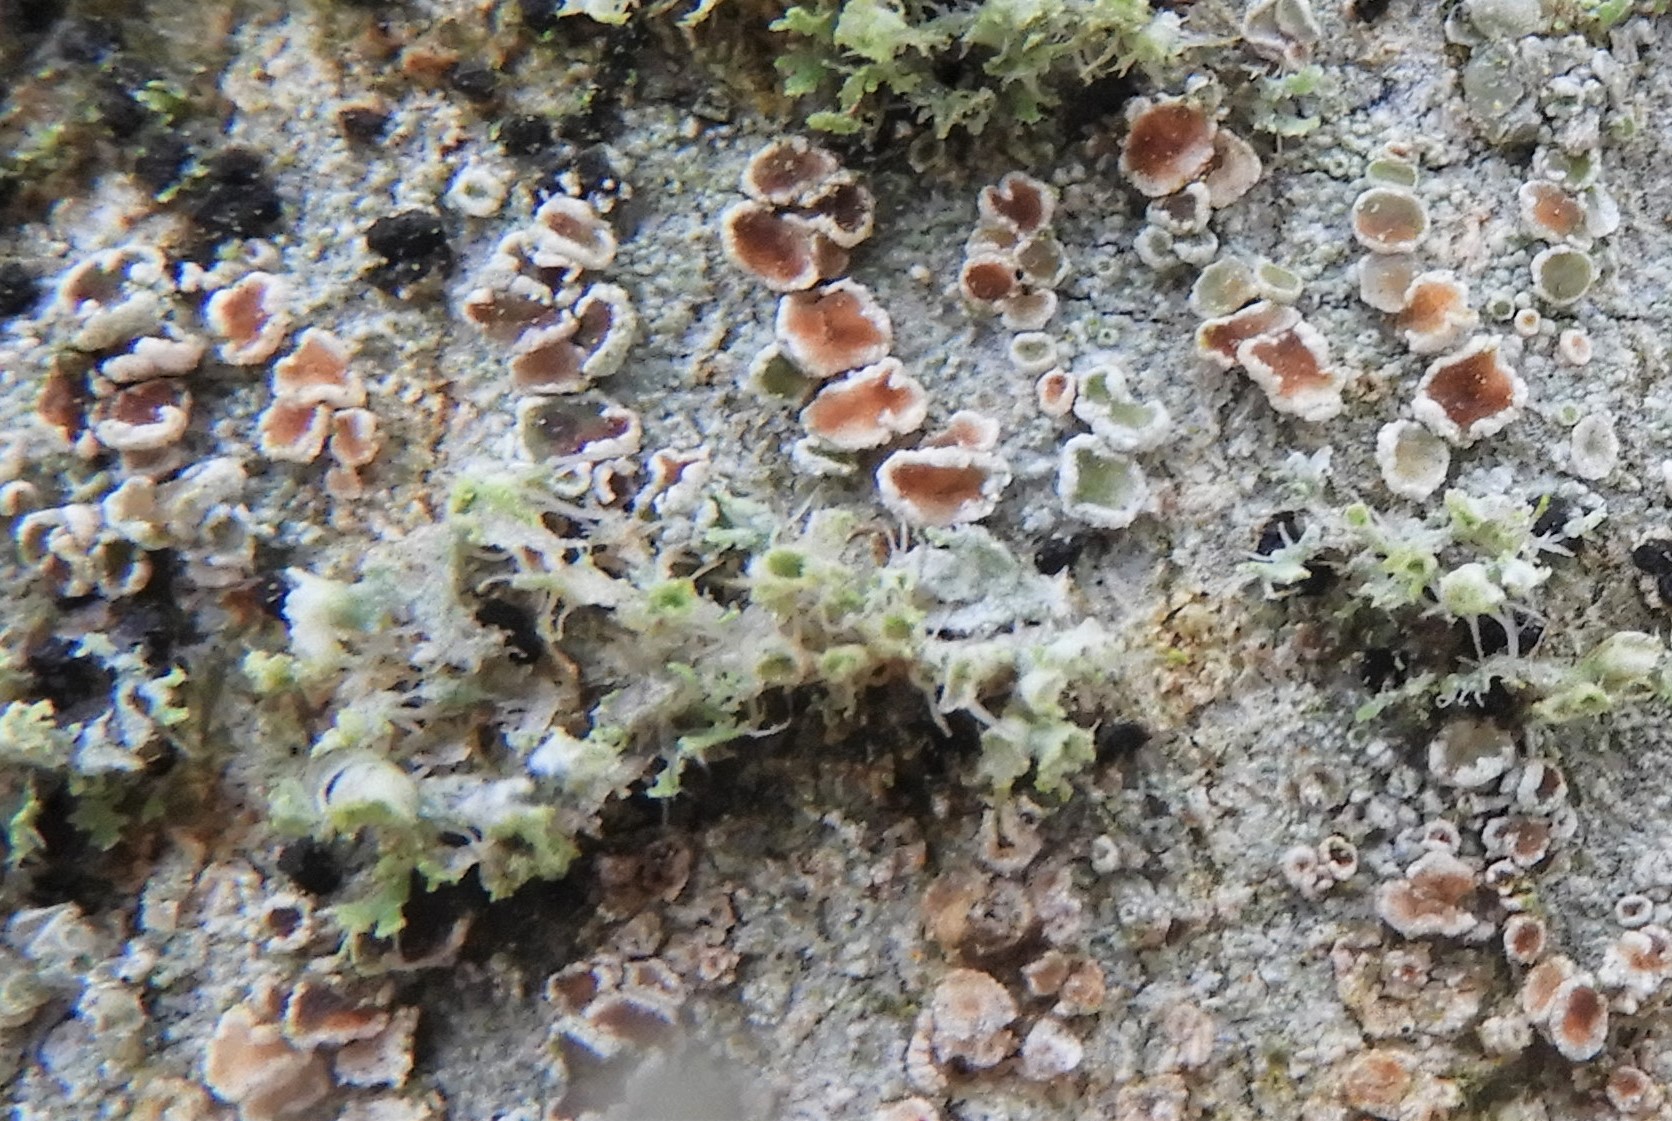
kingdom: Fungi
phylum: Ascomycota
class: Lecanoromycetes
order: Lecanorales
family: Lecanoraceae
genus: Lecanora
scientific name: Lecanora chlarotera
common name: brun kantskivelav
